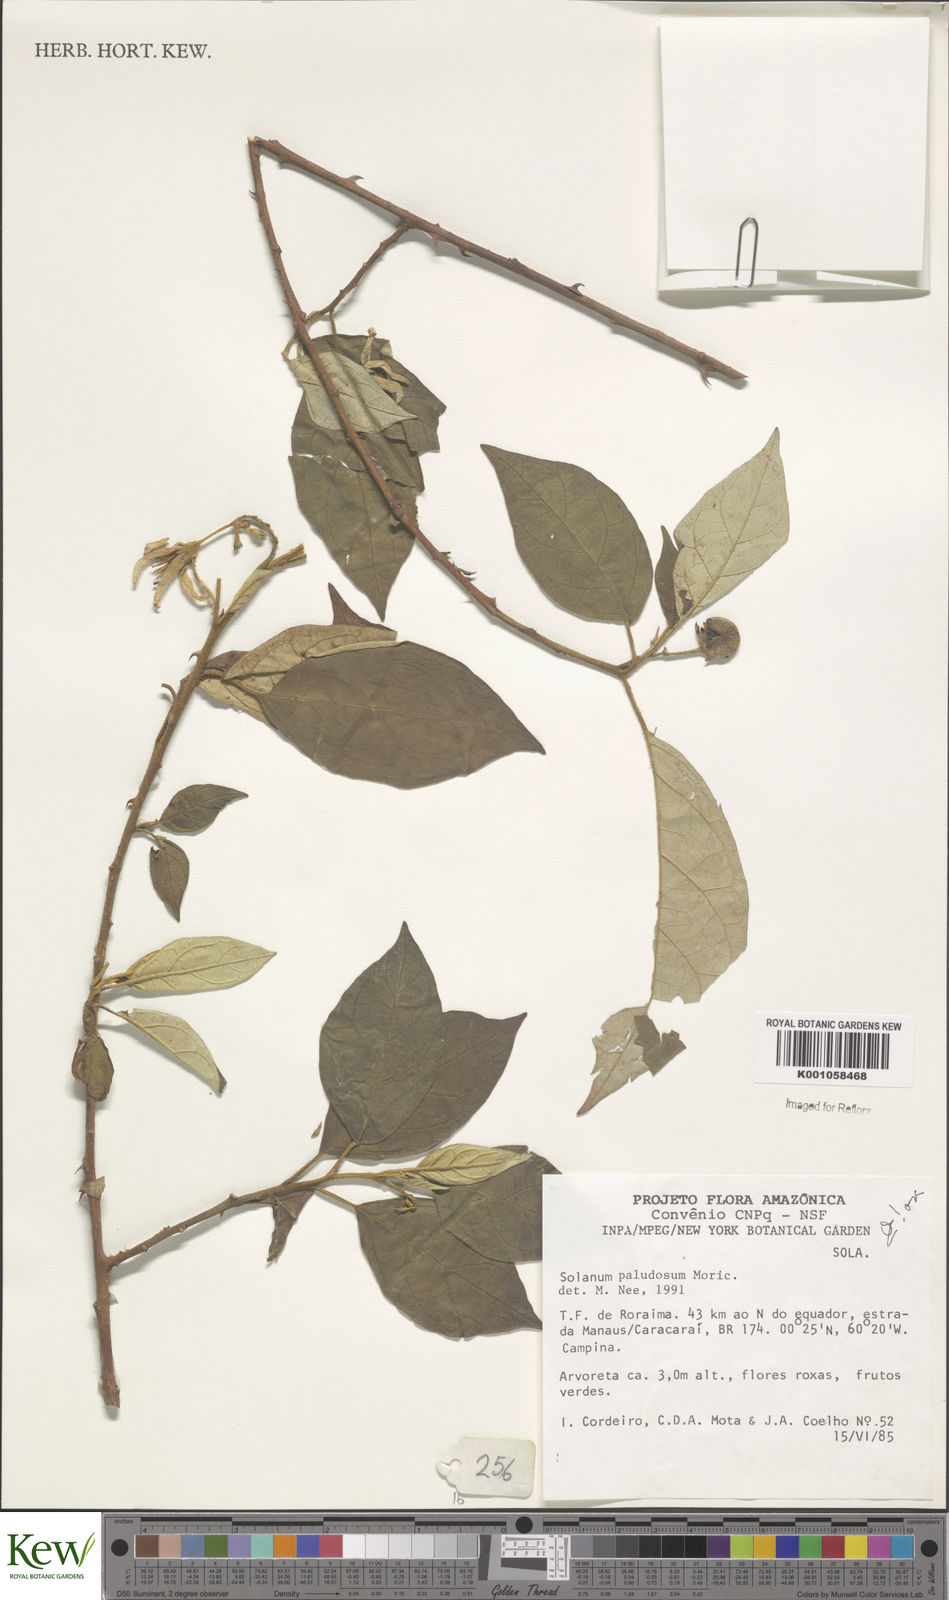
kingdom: Plantae
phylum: Tracheophyta
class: Magnoliopsida
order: Solanales
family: Solanaceae
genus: Solanum
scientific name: Solanum paludosum
